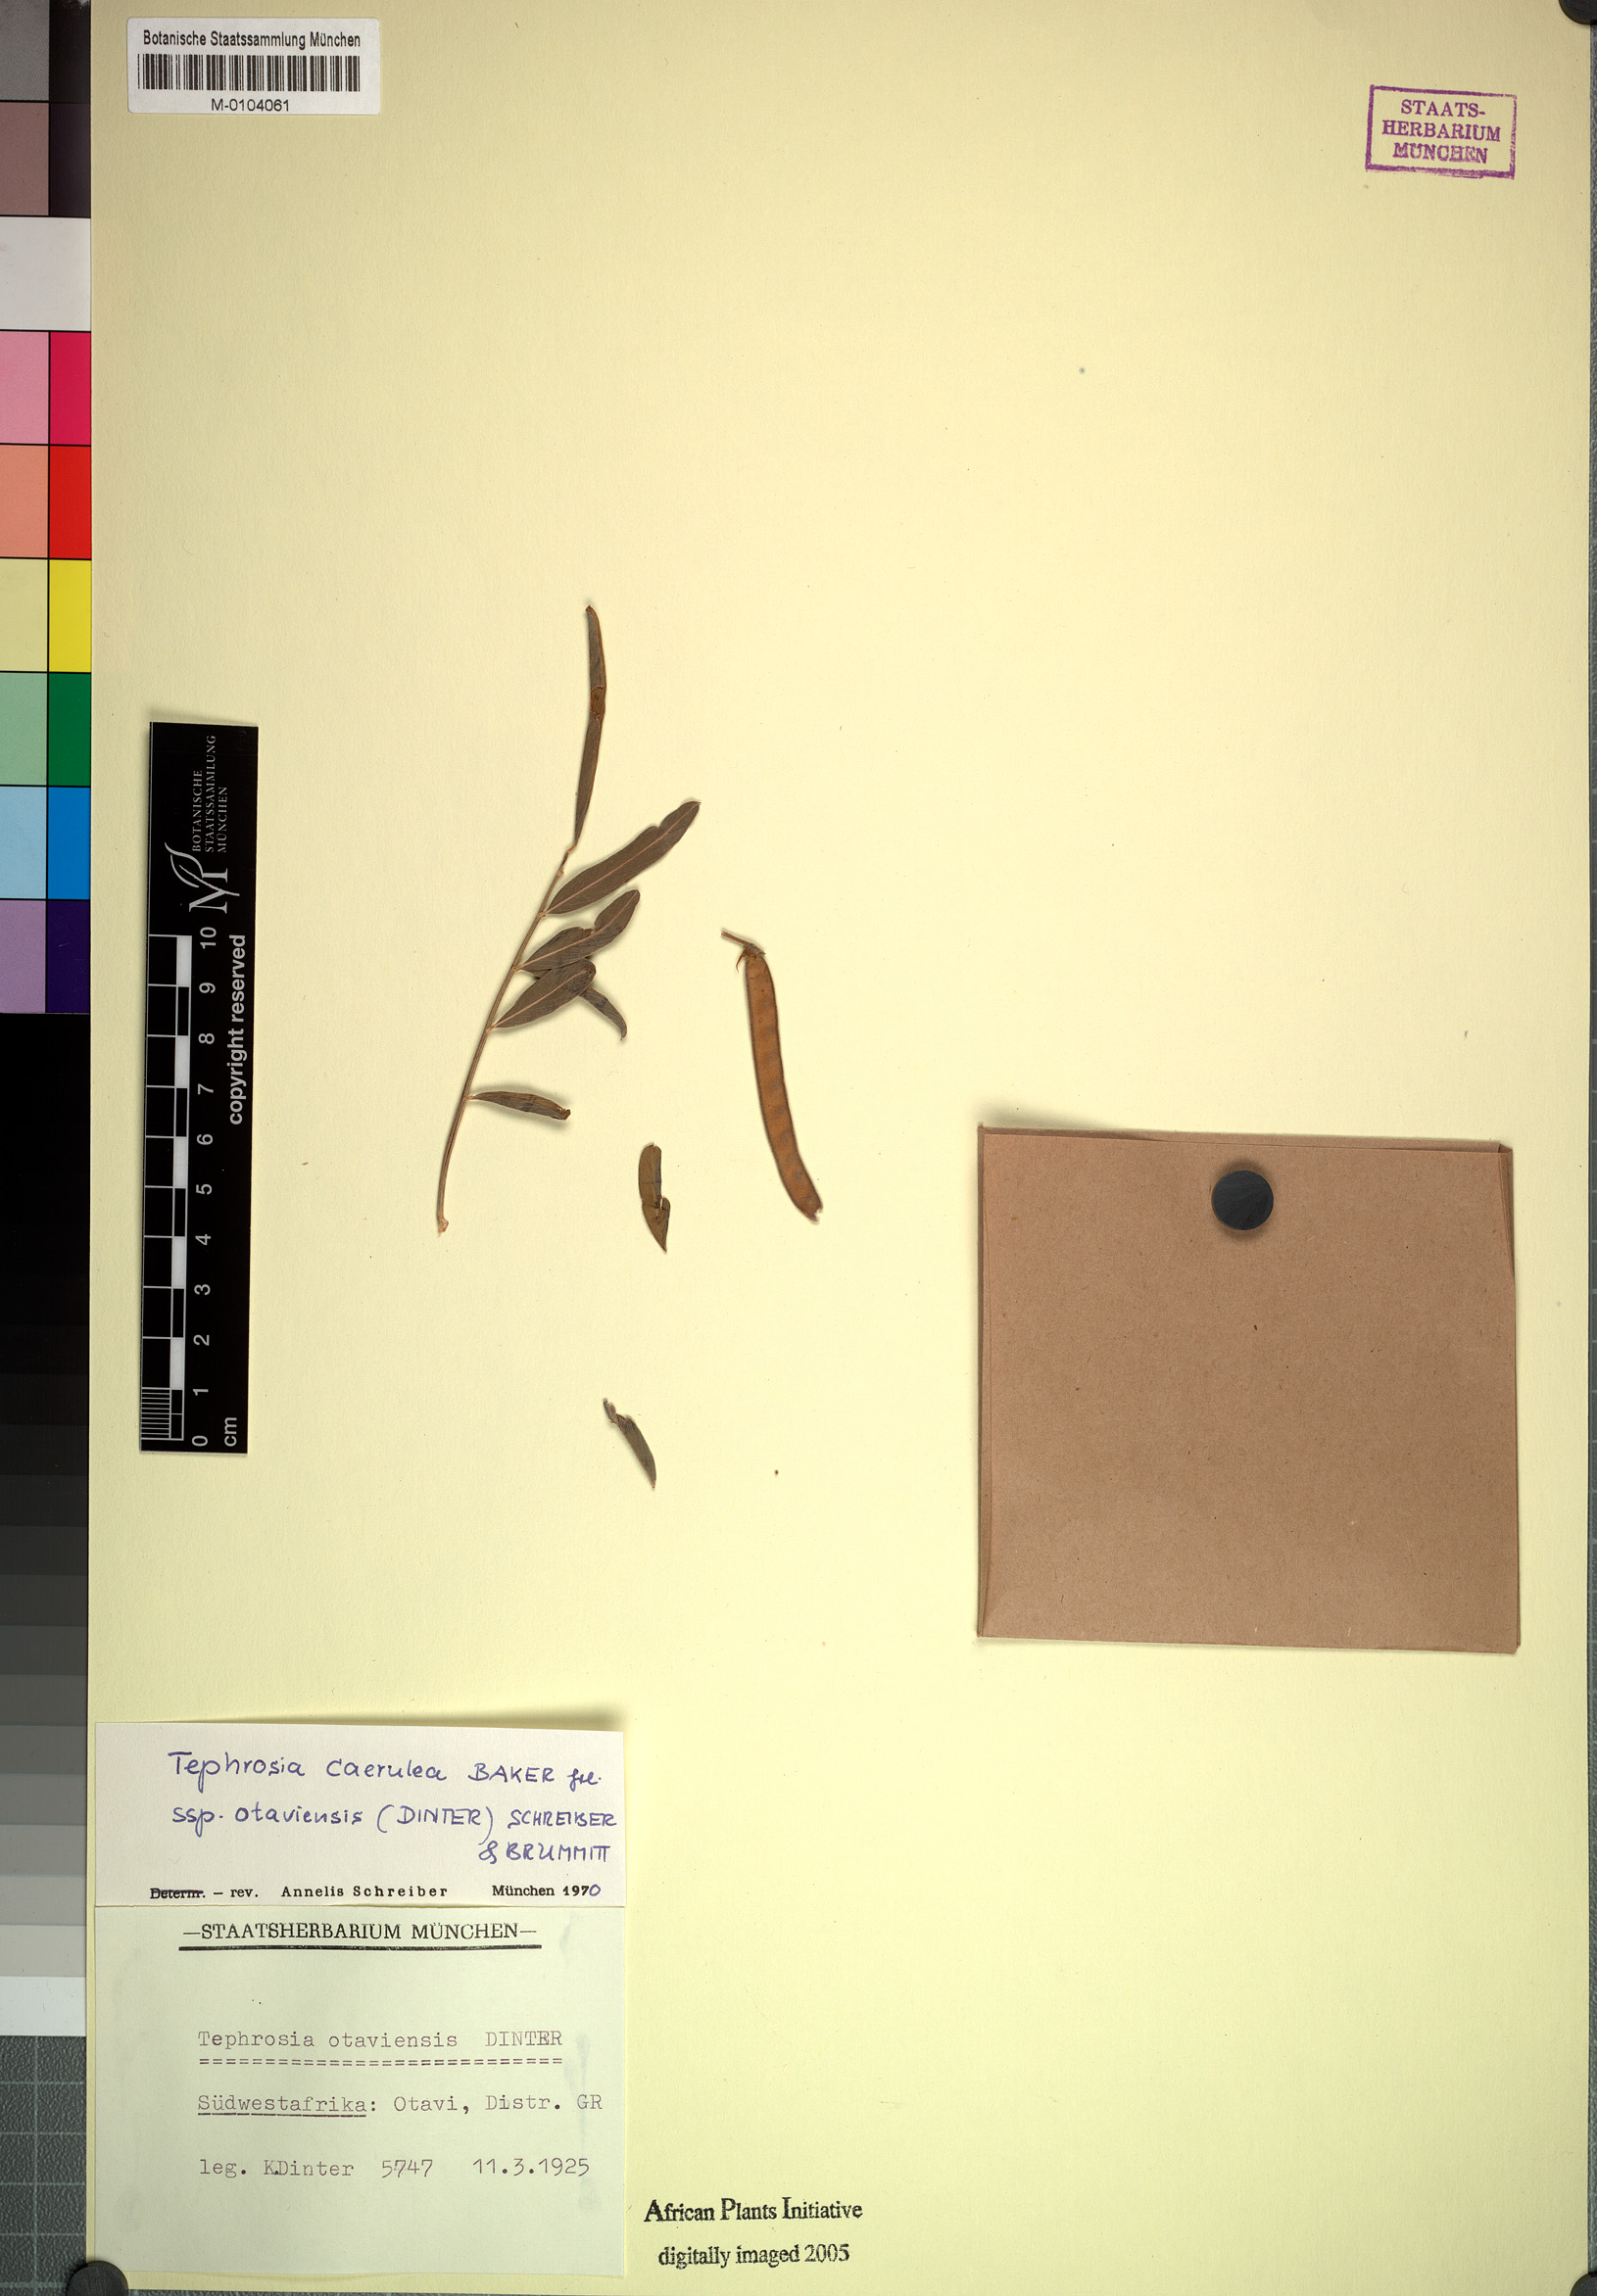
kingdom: Plantae
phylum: Tracheophyta
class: Magnoliopsida
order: Fabales
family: Fabaceae
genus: Tephrosia
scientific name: Tephrosia caerulea
